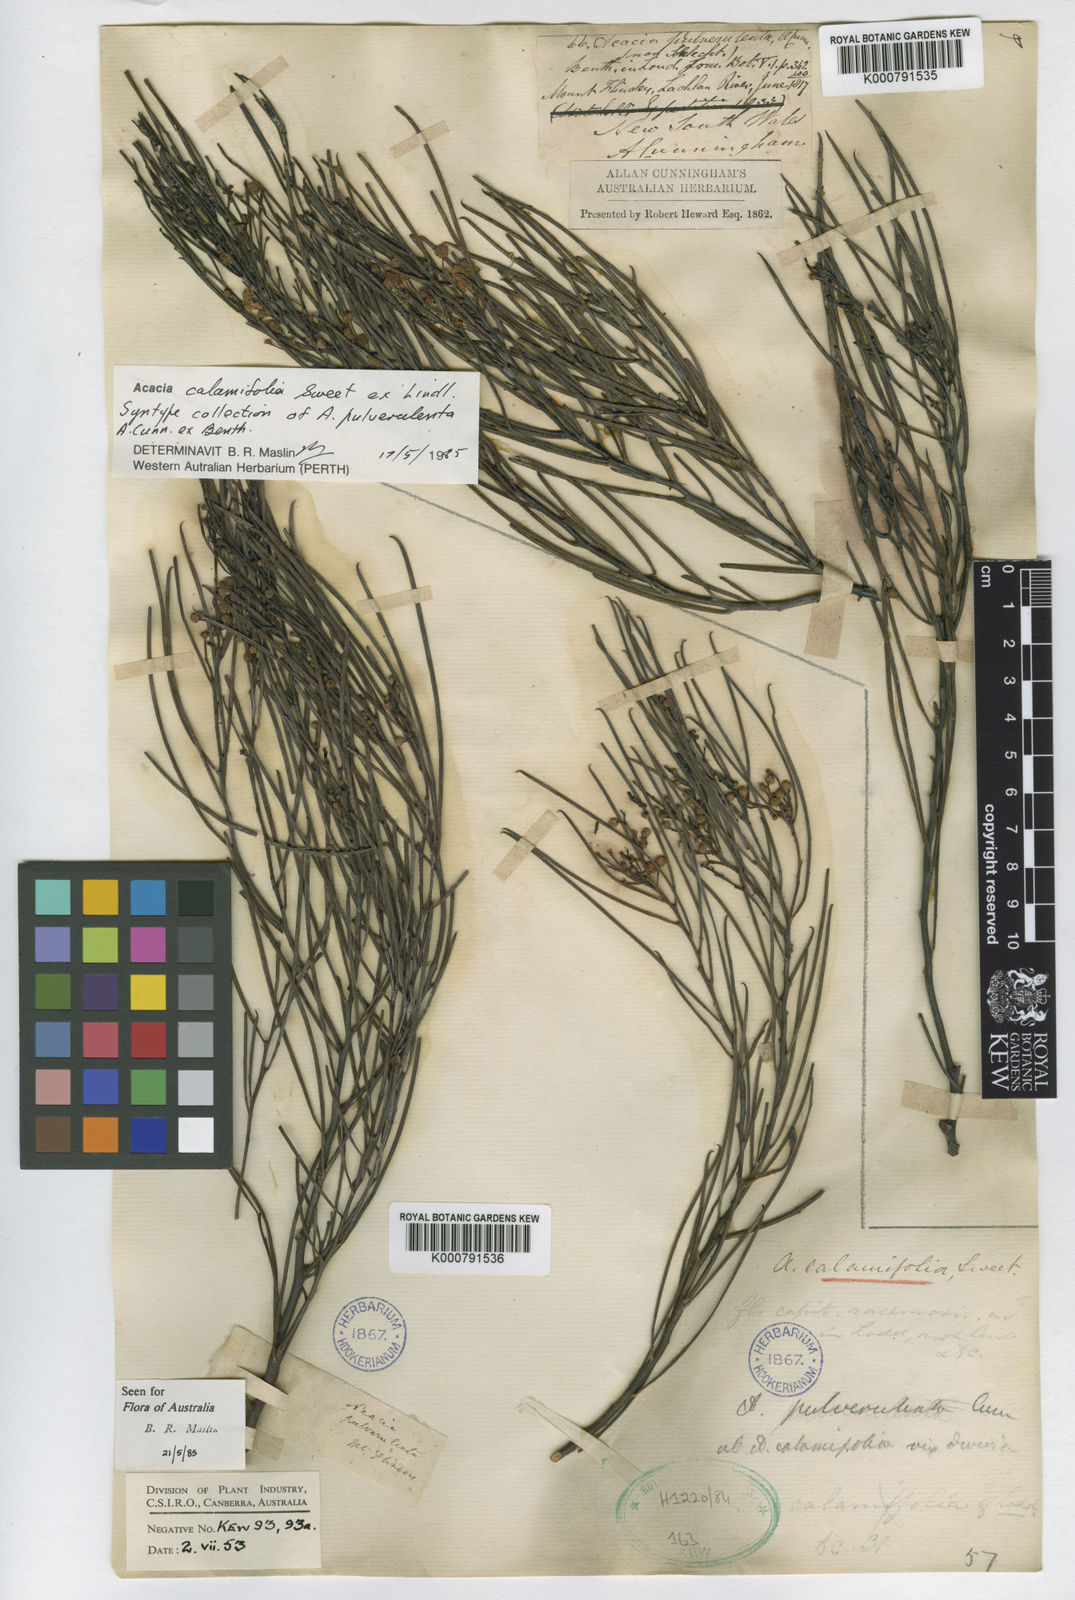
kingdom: Plantae
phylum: Tracheophyta
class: Magnoliopsida
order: Fabales
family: Fabaceae
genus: Acacia
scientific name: Acacia calamifolia
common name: Broom wattle
